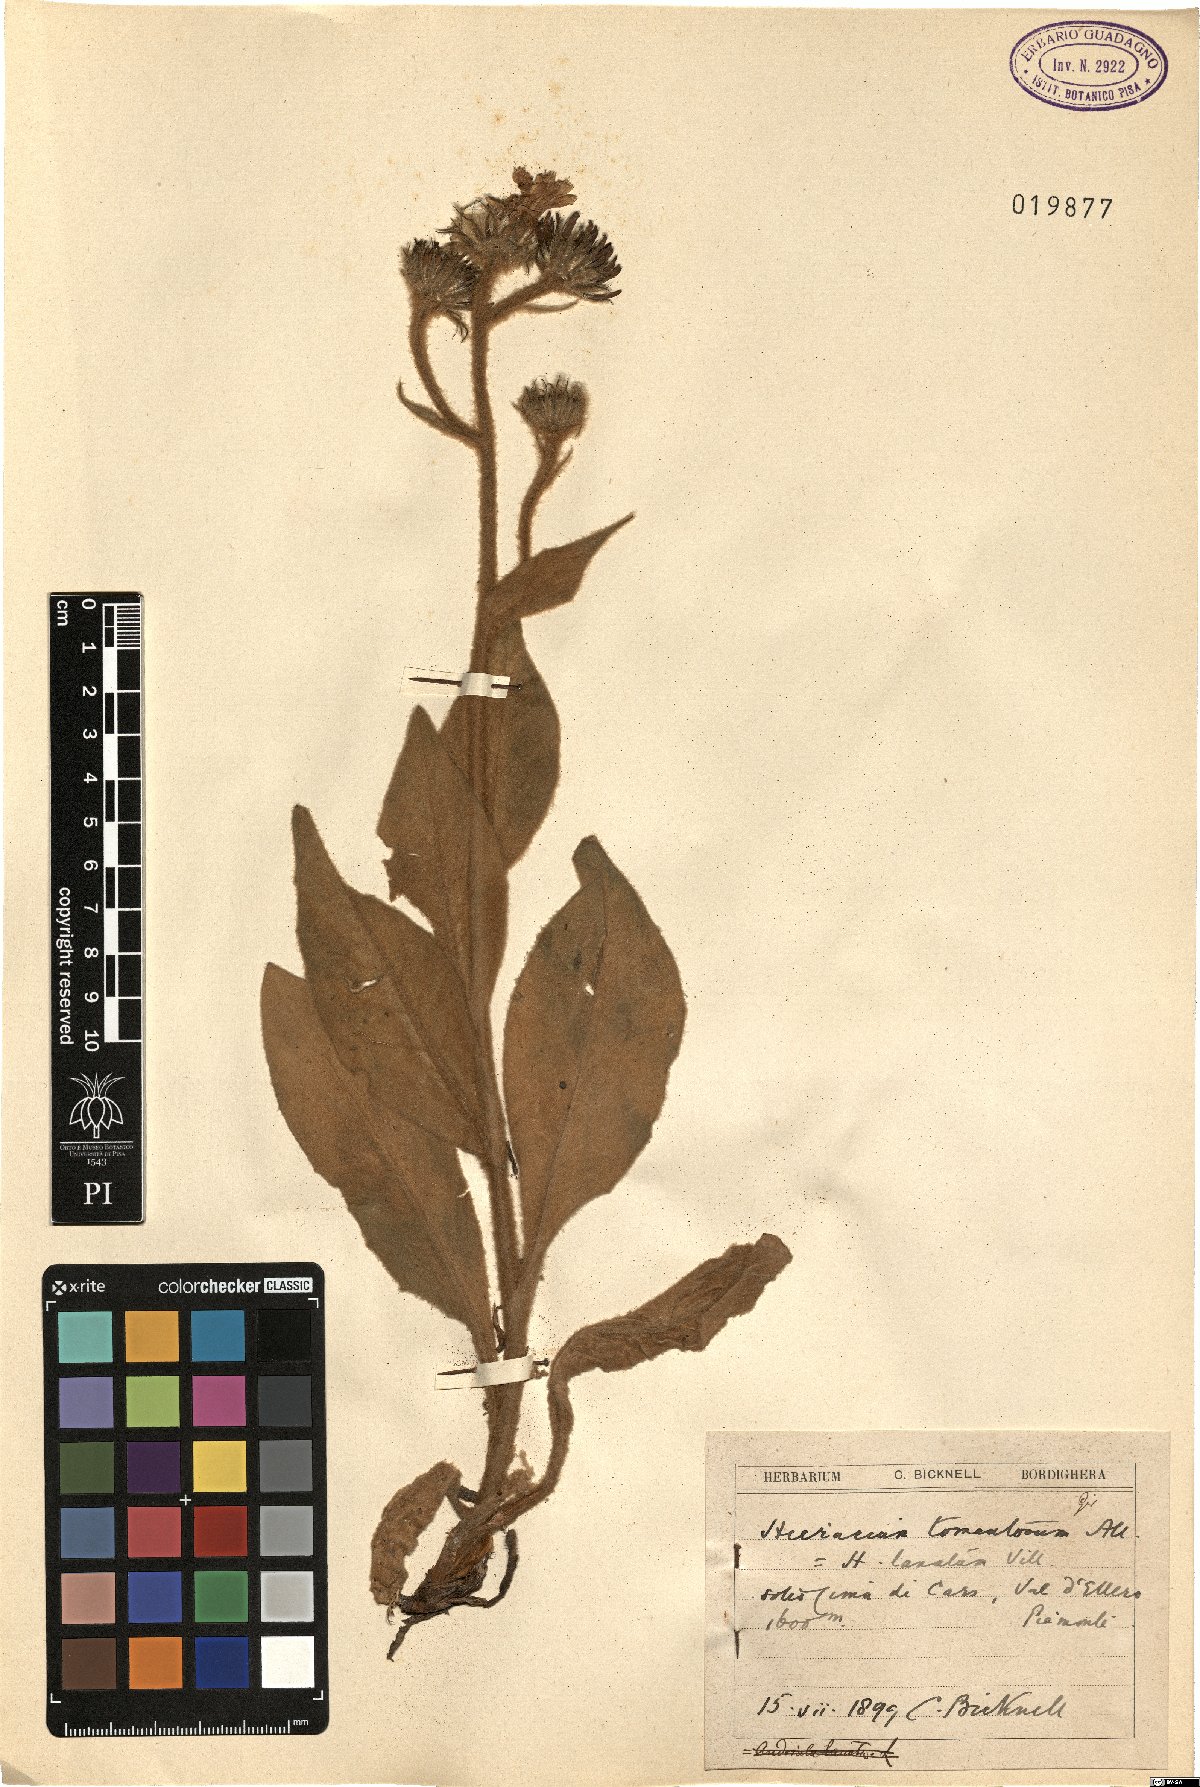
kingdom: Plantae
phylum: Tracheophyta
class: Magnoliopsida
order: Asterales
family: Asteraceae
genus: Hieracium
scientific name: Hieracium tomentosum
